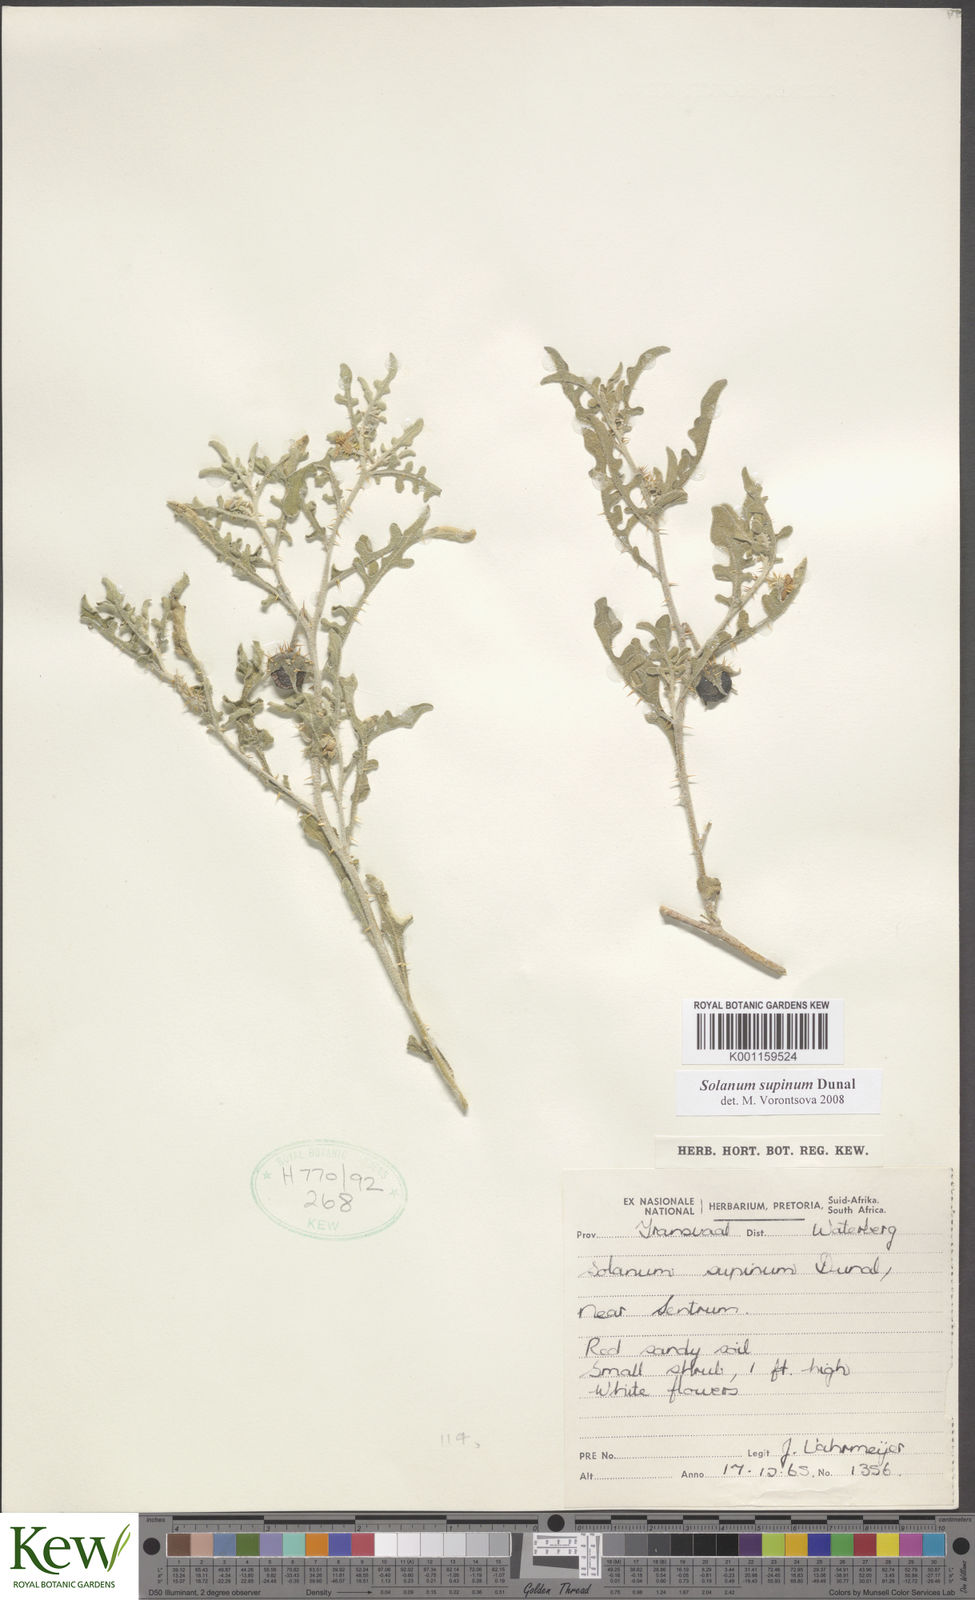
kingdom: Plantae
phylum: Tracheophyta
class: Magnoliopsida
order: Solanales
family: Solanaceae
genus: Solanum
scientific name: Solanum supinum
